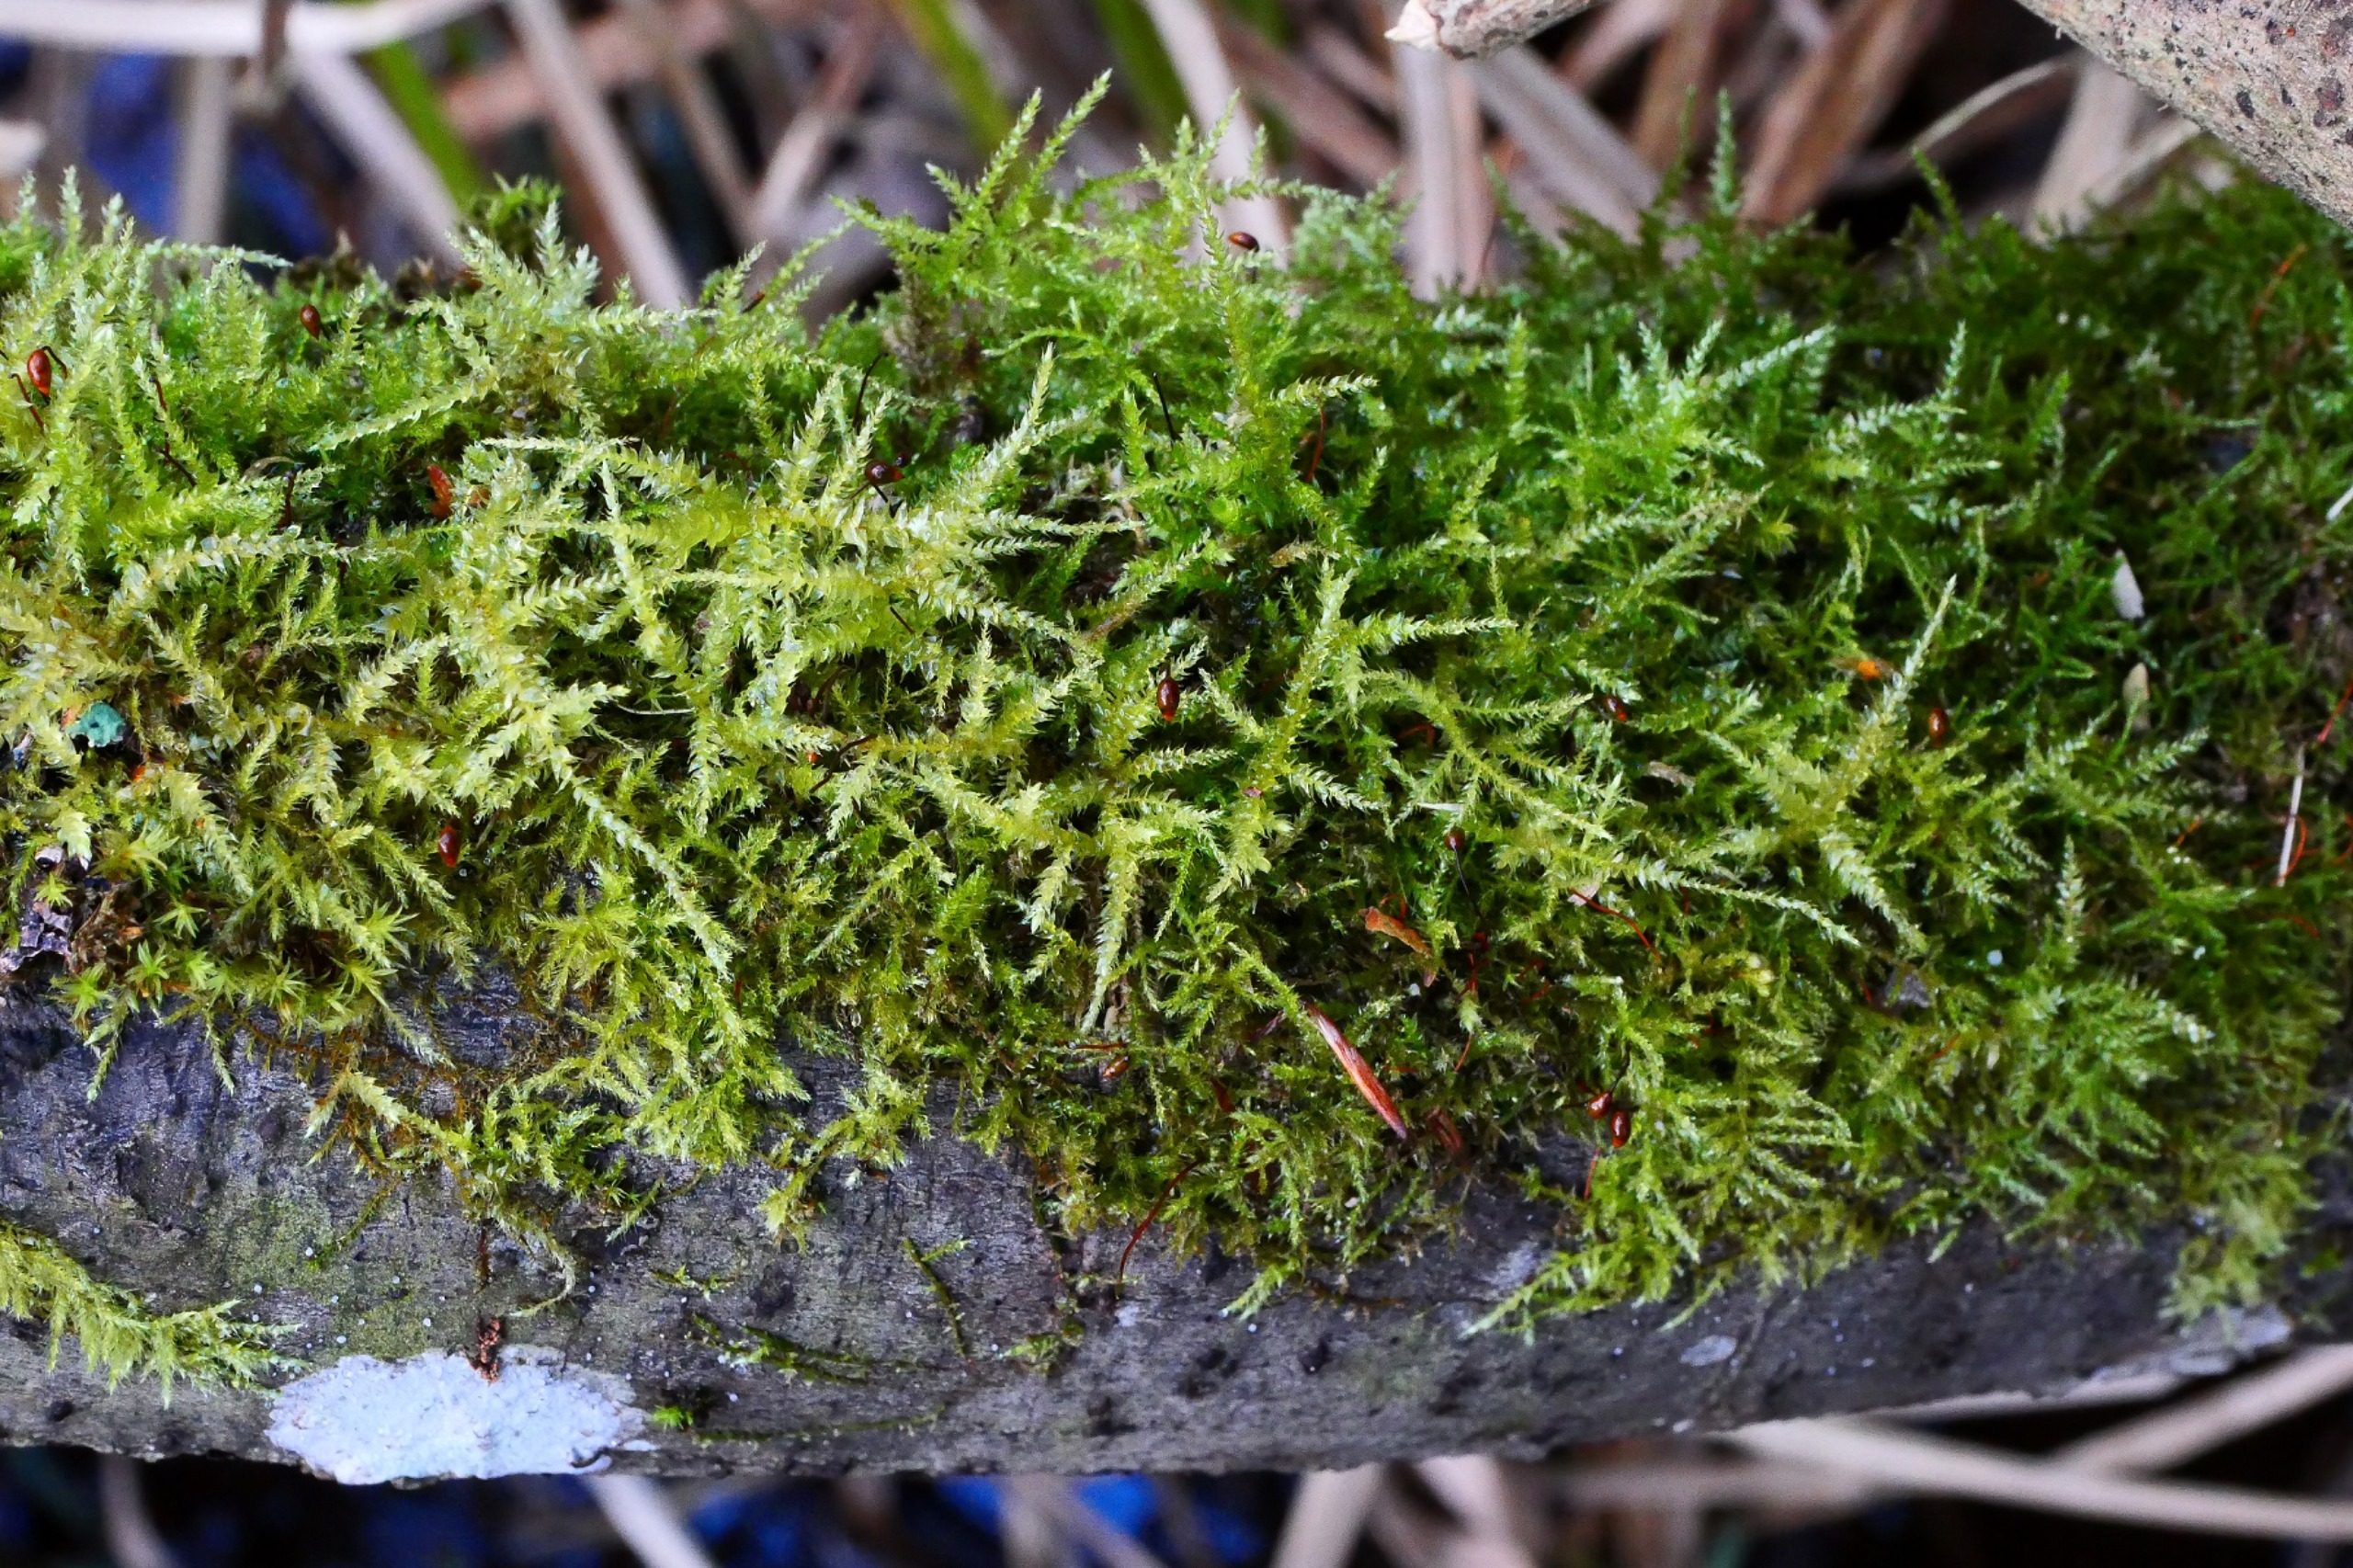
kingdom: Plantae
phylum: Bryophyta
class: Bryopsida
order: Hypnales
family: Brachytheciaceae
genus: Sciuro-hypnum
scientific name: Sciuro-hypnum curtum
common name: Grøn kortkapsel
